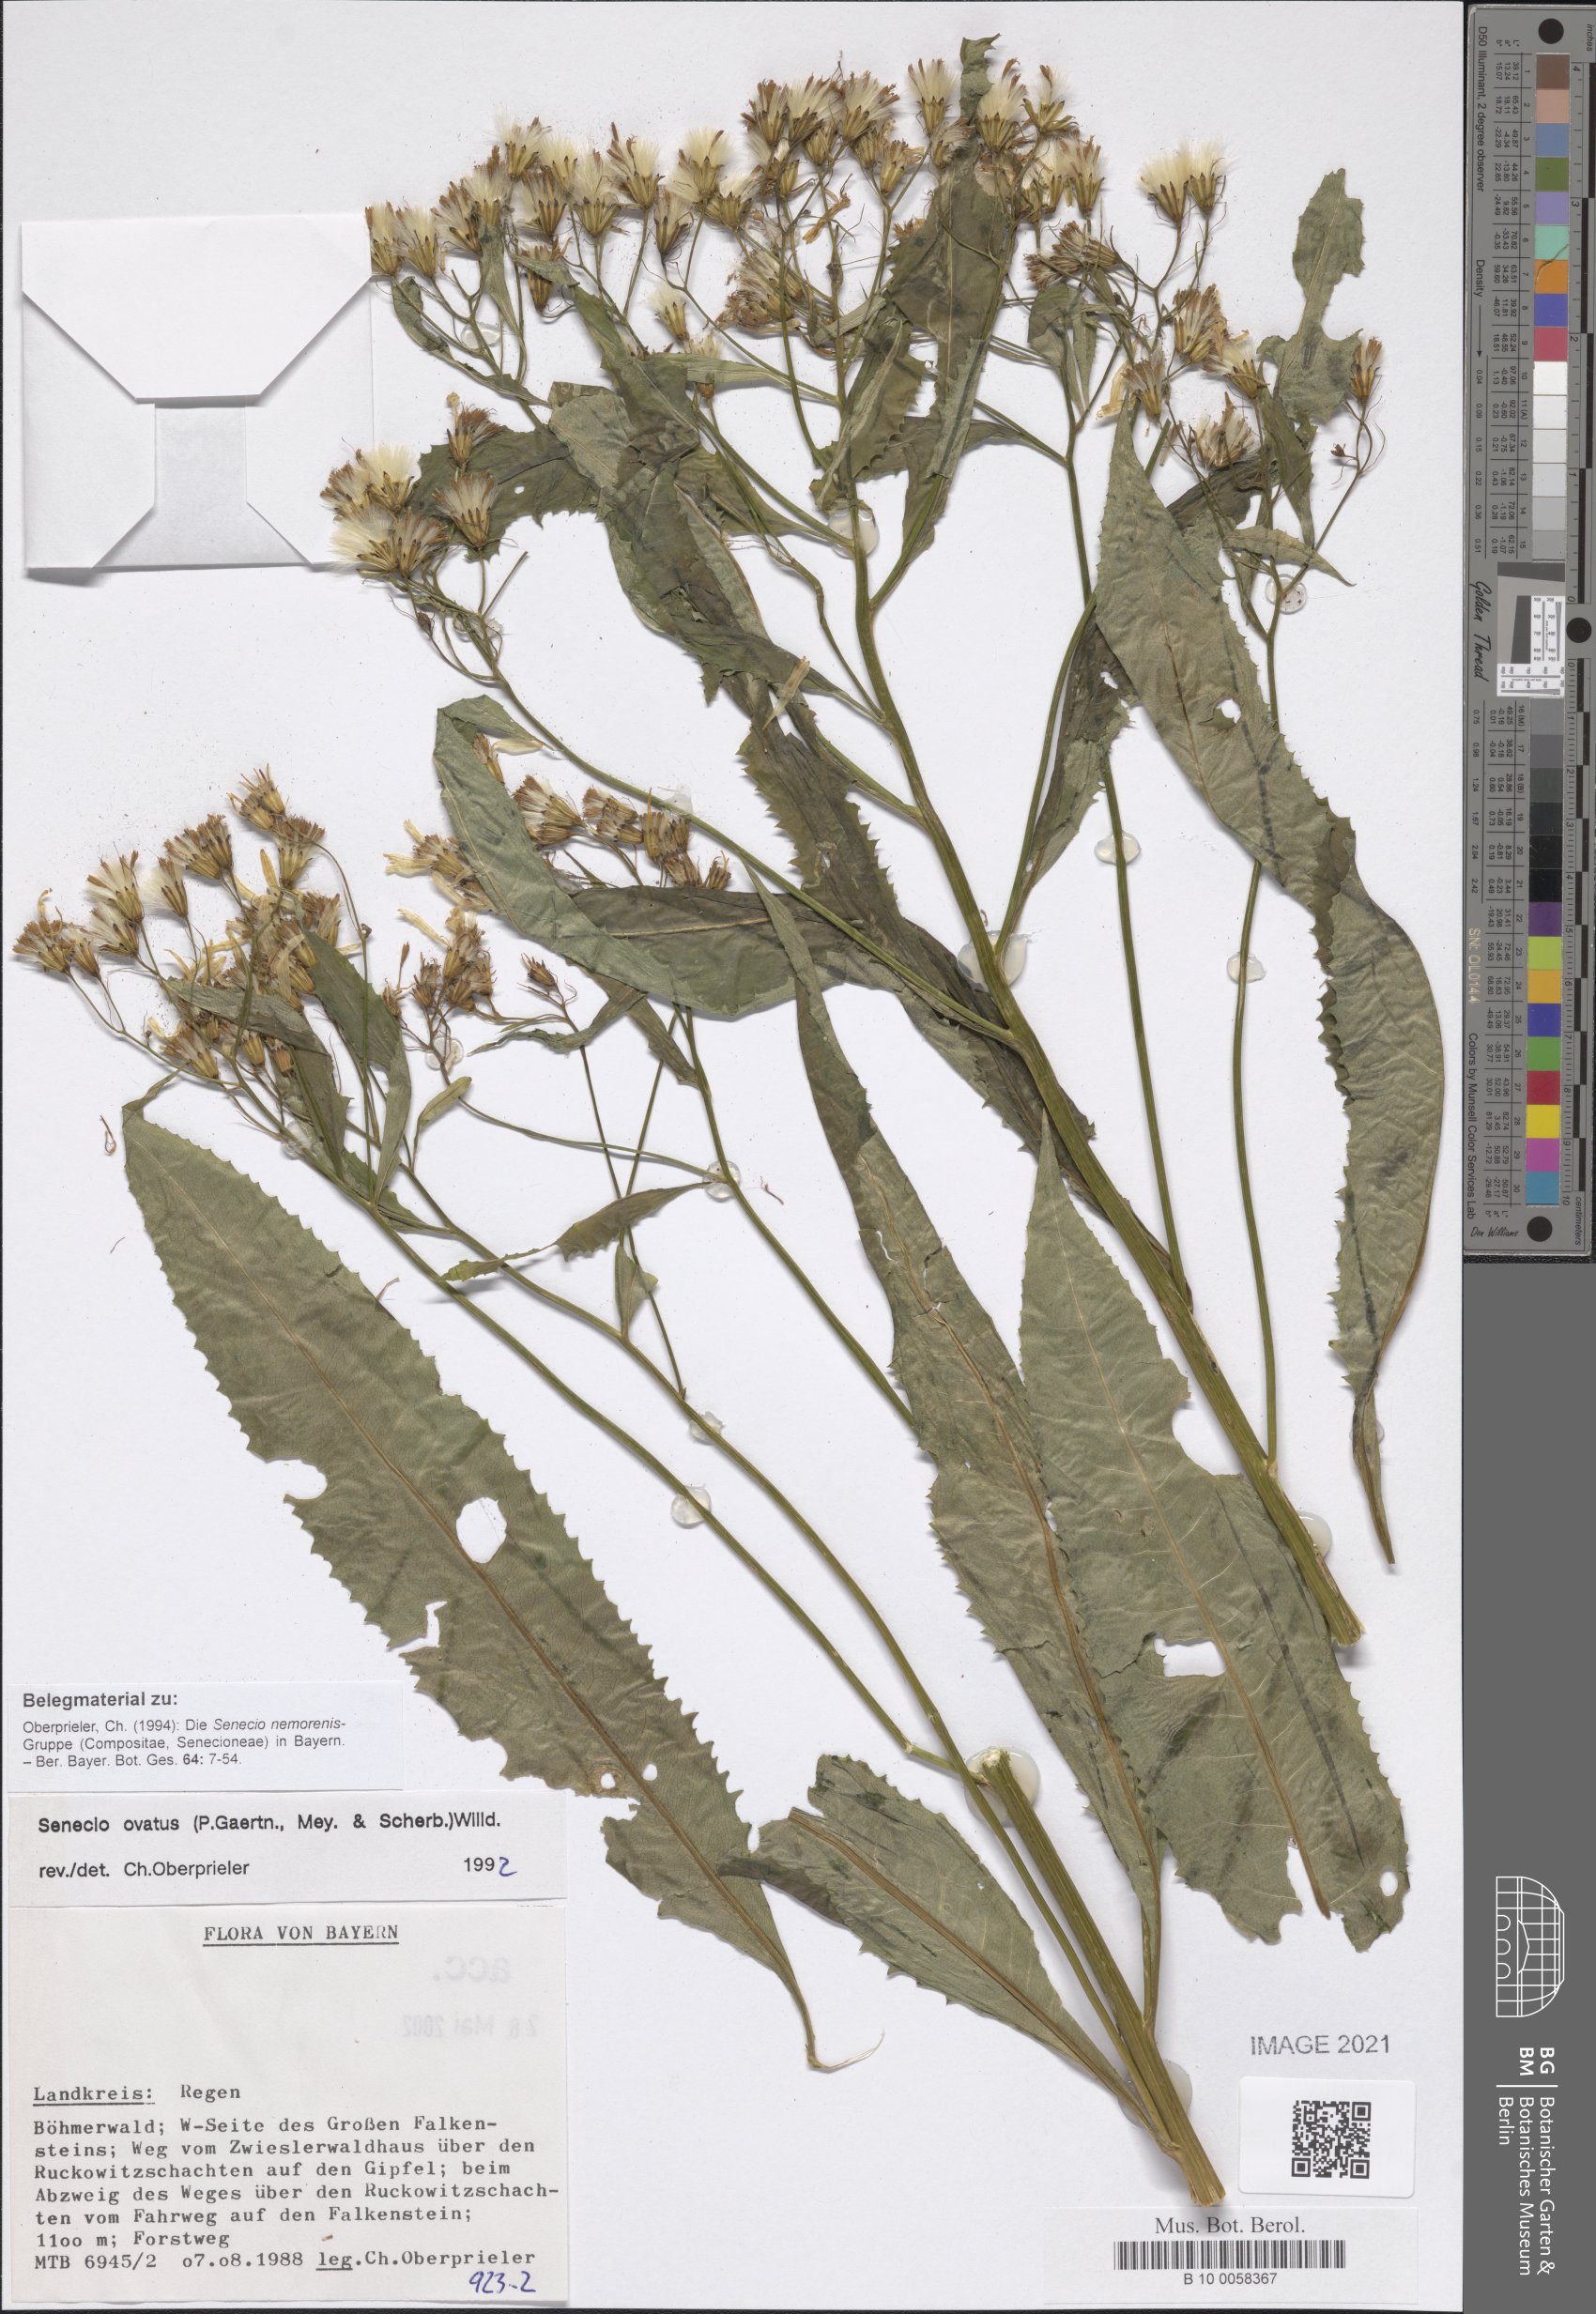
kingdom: Plantae
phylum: Tracheophyta
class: Magnoliopsida
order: Asterales
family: Asteraceae
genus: Senecio
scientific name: Senecio ovatus
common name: Wood ragwort
